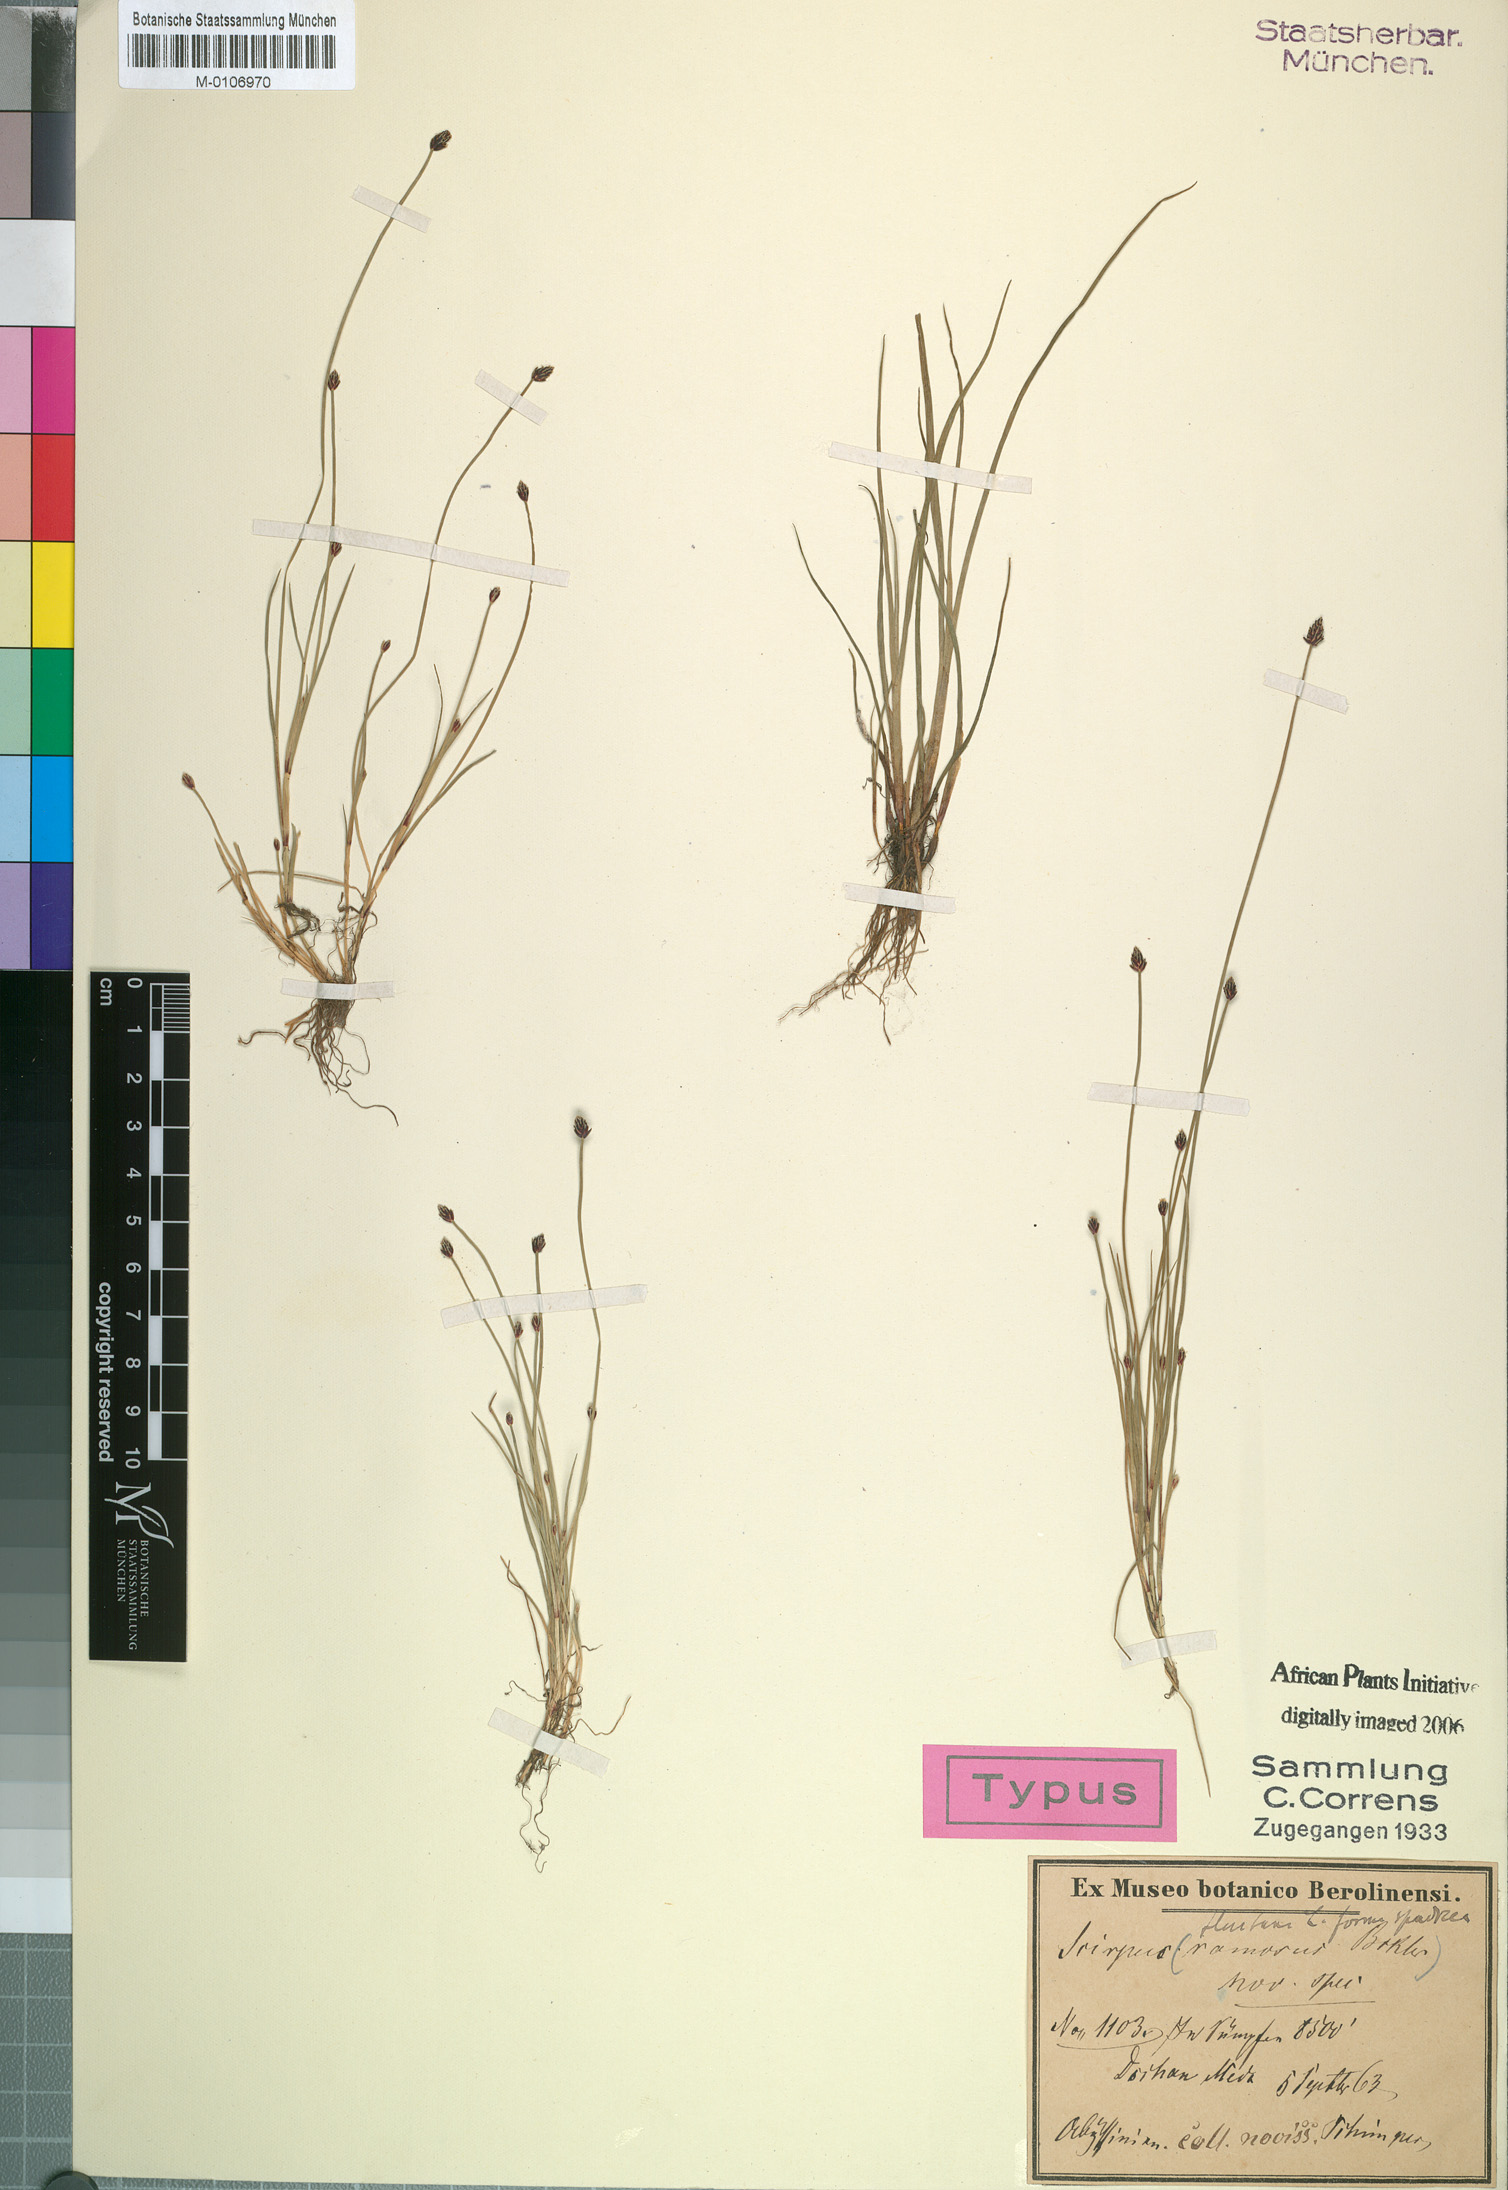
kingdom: Plantae
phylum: Tracheophyta
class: Liliopsida
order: Poales
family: Cyperaceae
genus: Isolepis
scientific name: Isolepis fluitans
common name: Floating club-rush
